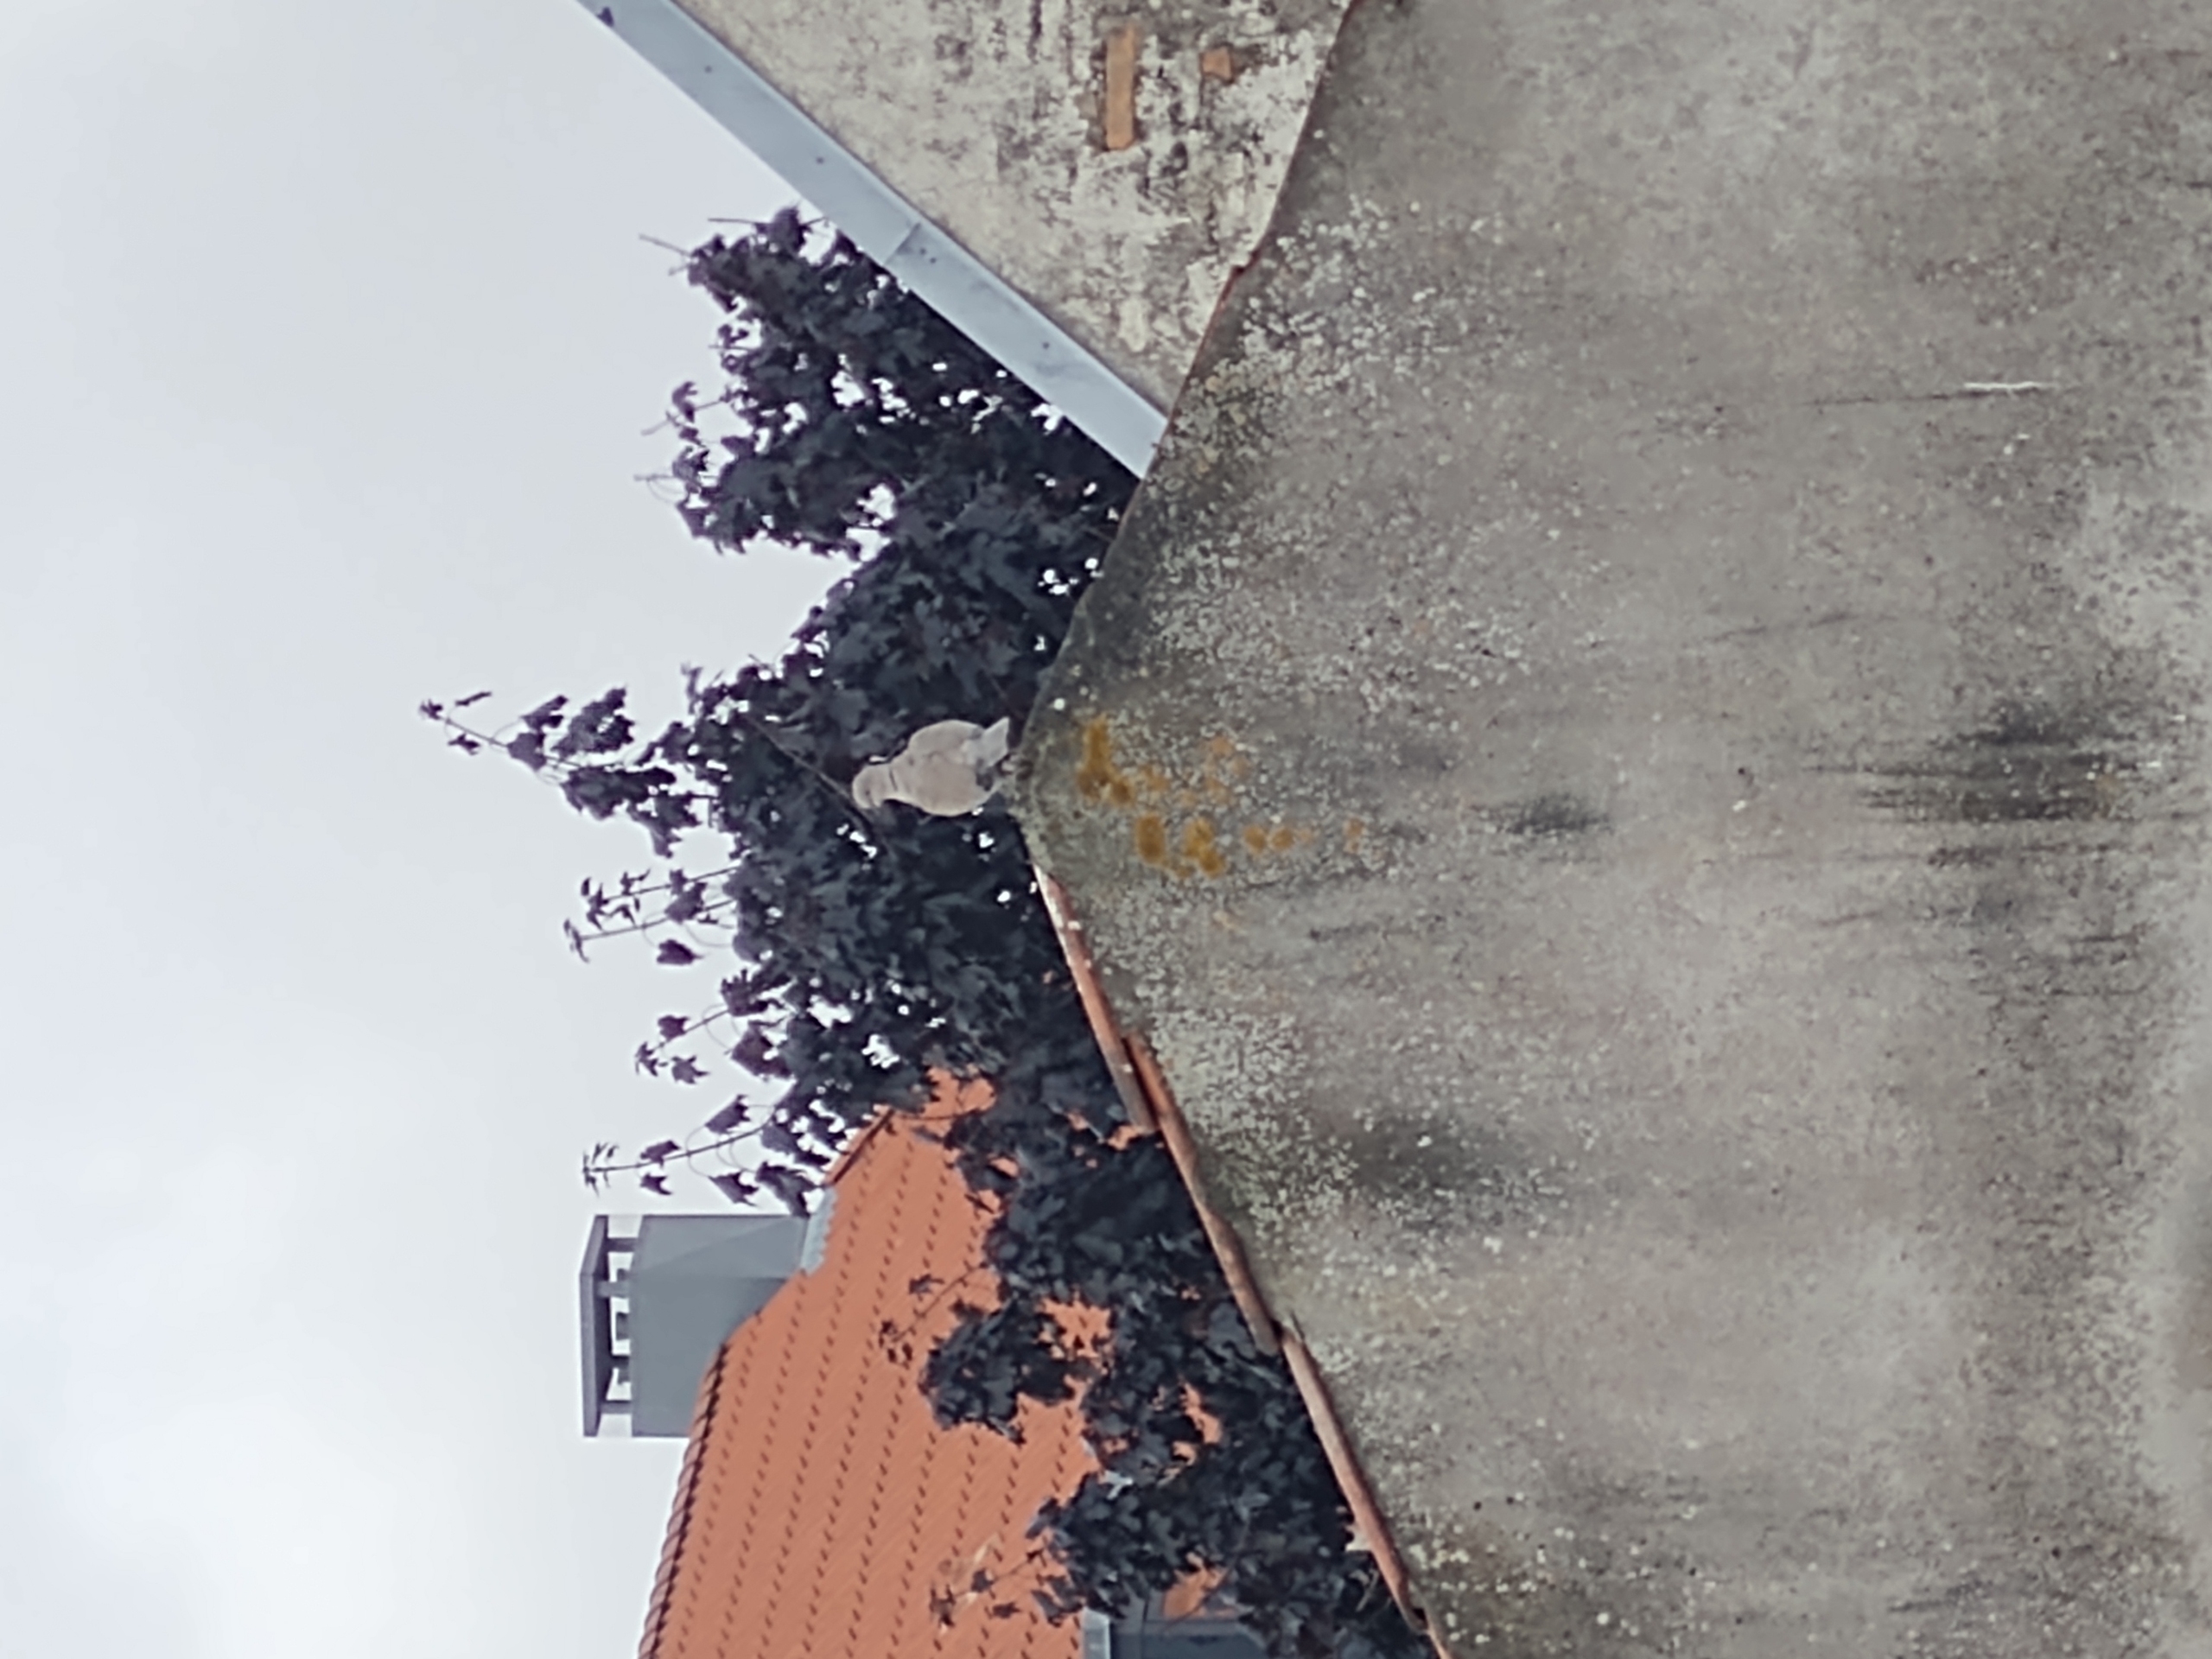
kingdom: Animalia
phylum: Chordata
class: Aves
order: Columbiformes
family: Columbidae
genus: Streptopelia
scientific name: Streptopelia decaocto
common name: Tyrkerdue
